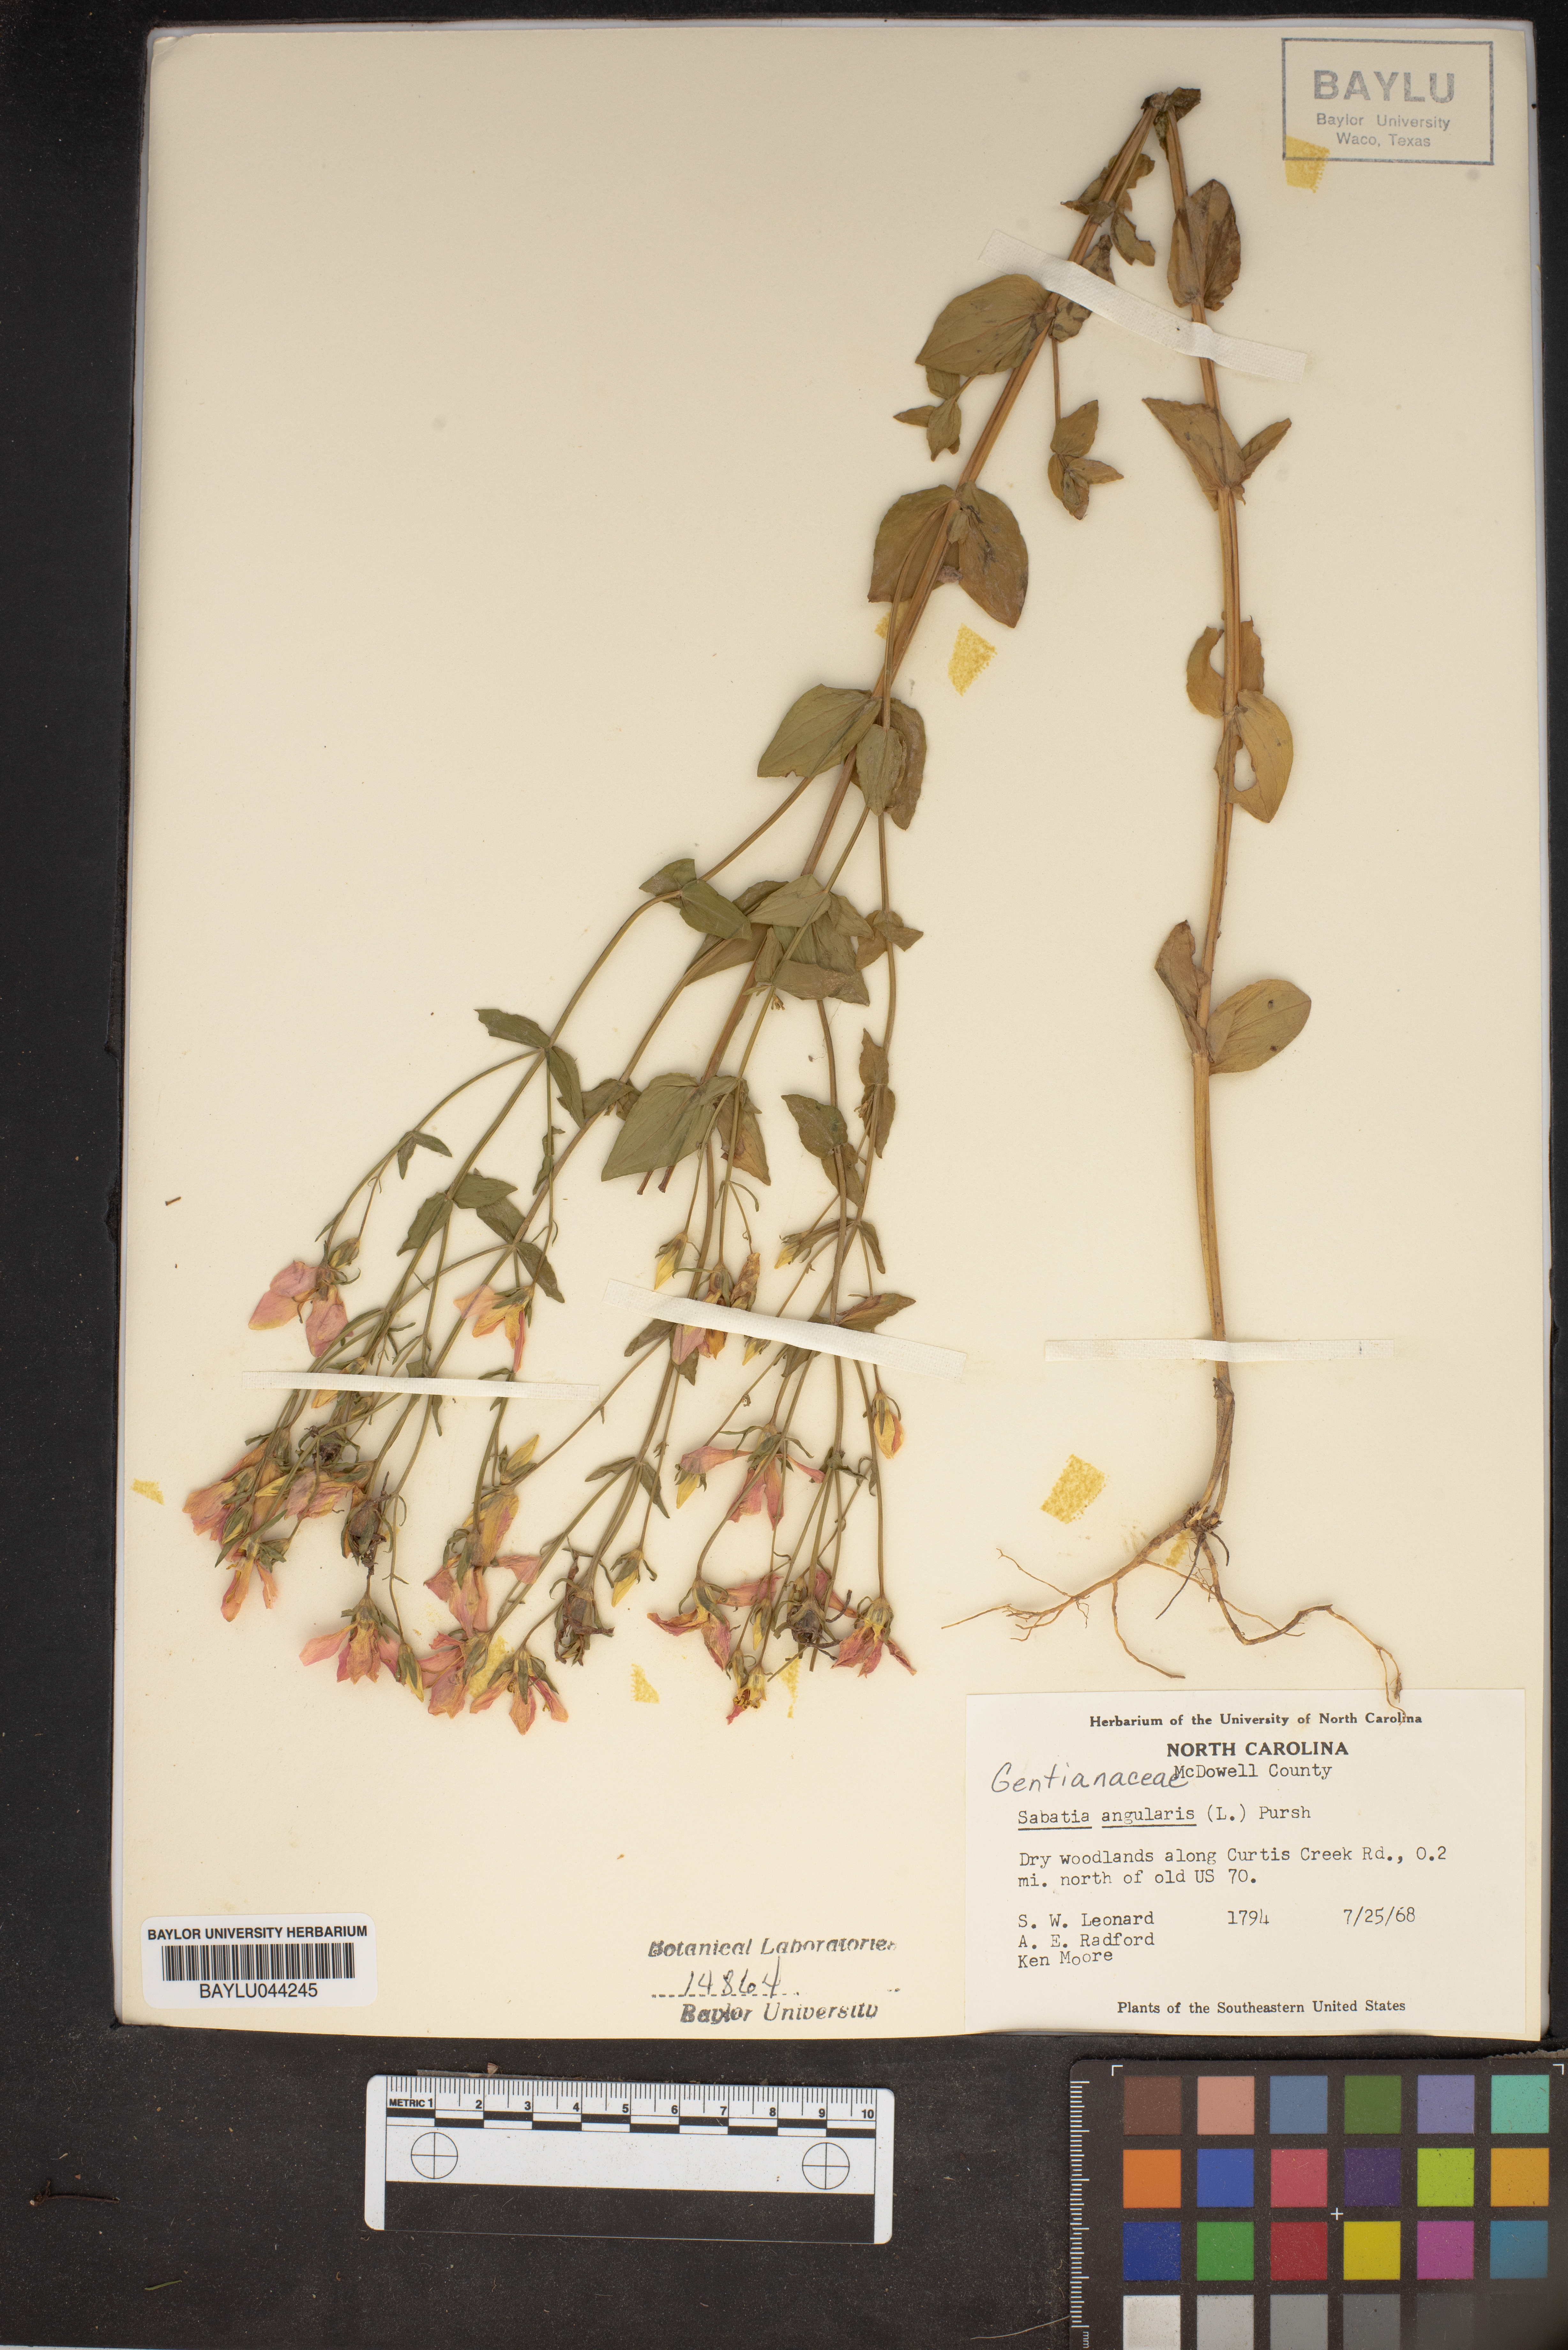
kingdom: Plantae
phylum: Tracheophyta
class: Magnoliopsida
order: Gentianales
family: Gentianaceae
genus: Sabatia
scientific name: Sabatia angularis
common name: Rose-pink
